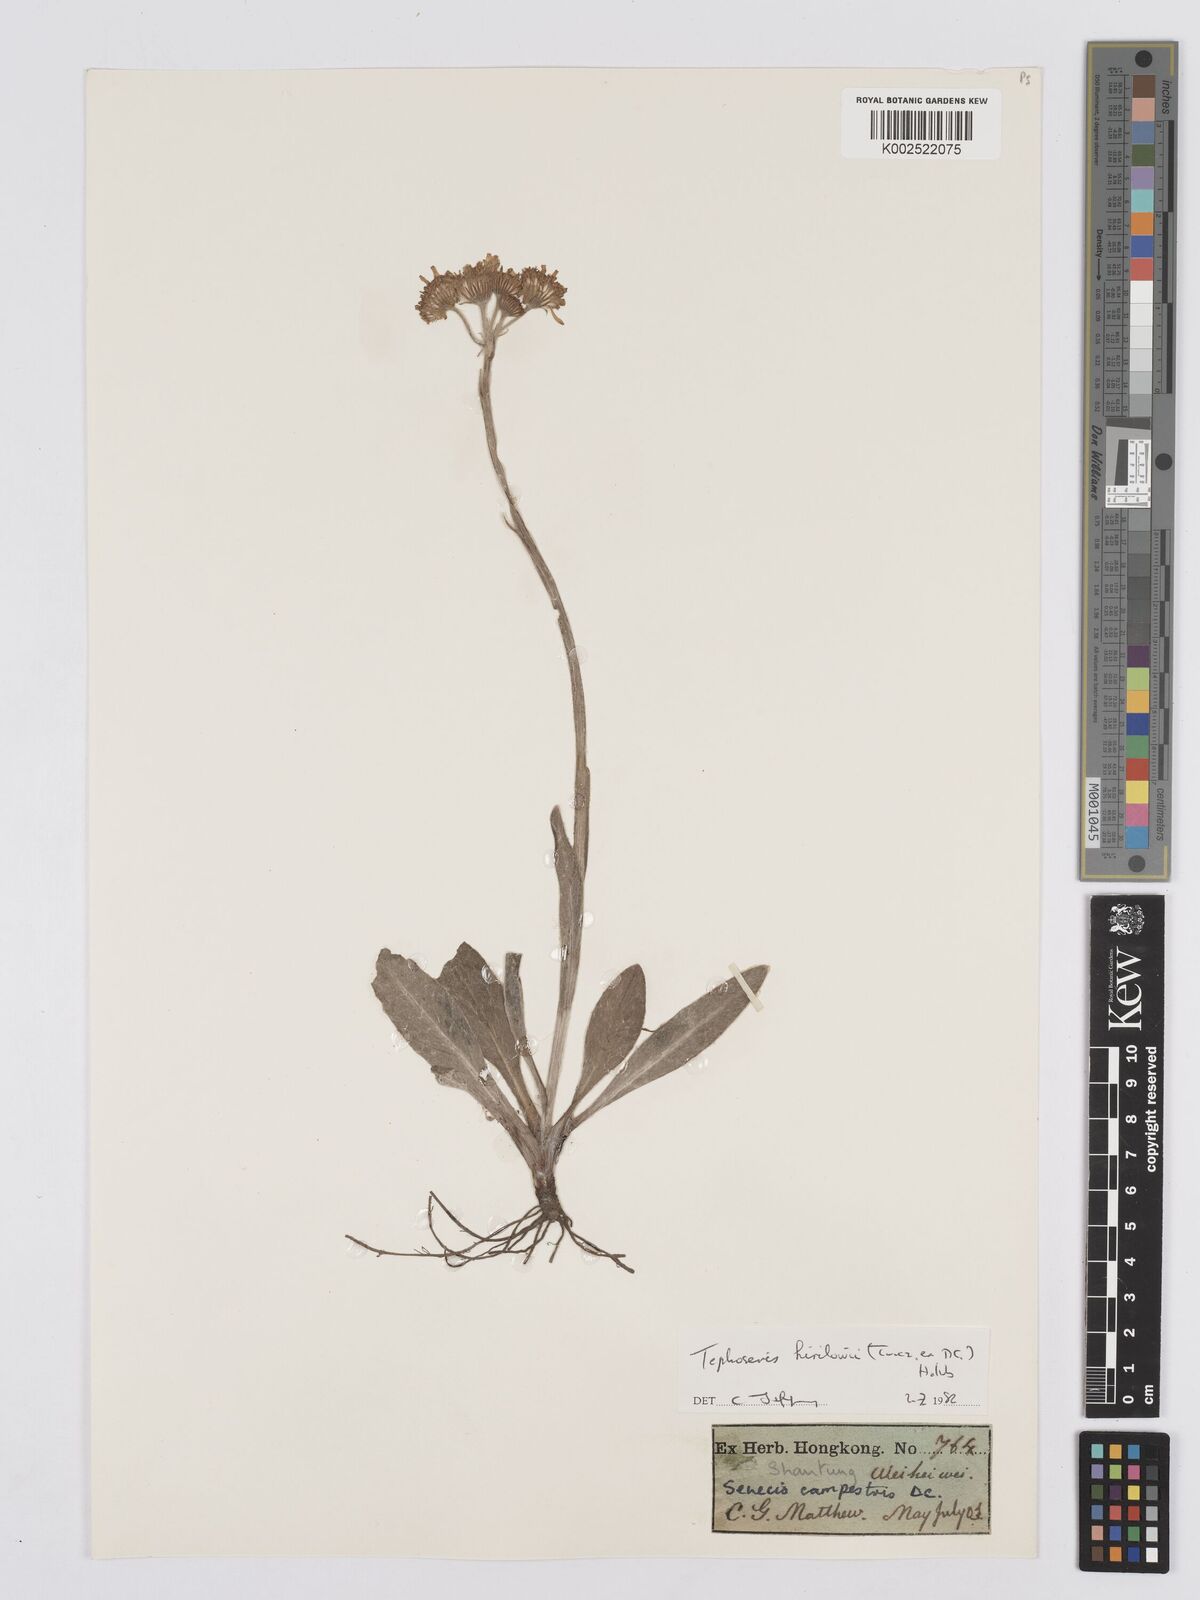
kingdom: Plantae
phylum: Tracheophyta
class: Magnoliopsida
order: Asterales
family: Asteraceae
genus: Tephroseris
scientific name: Tephroseris kirilowii
